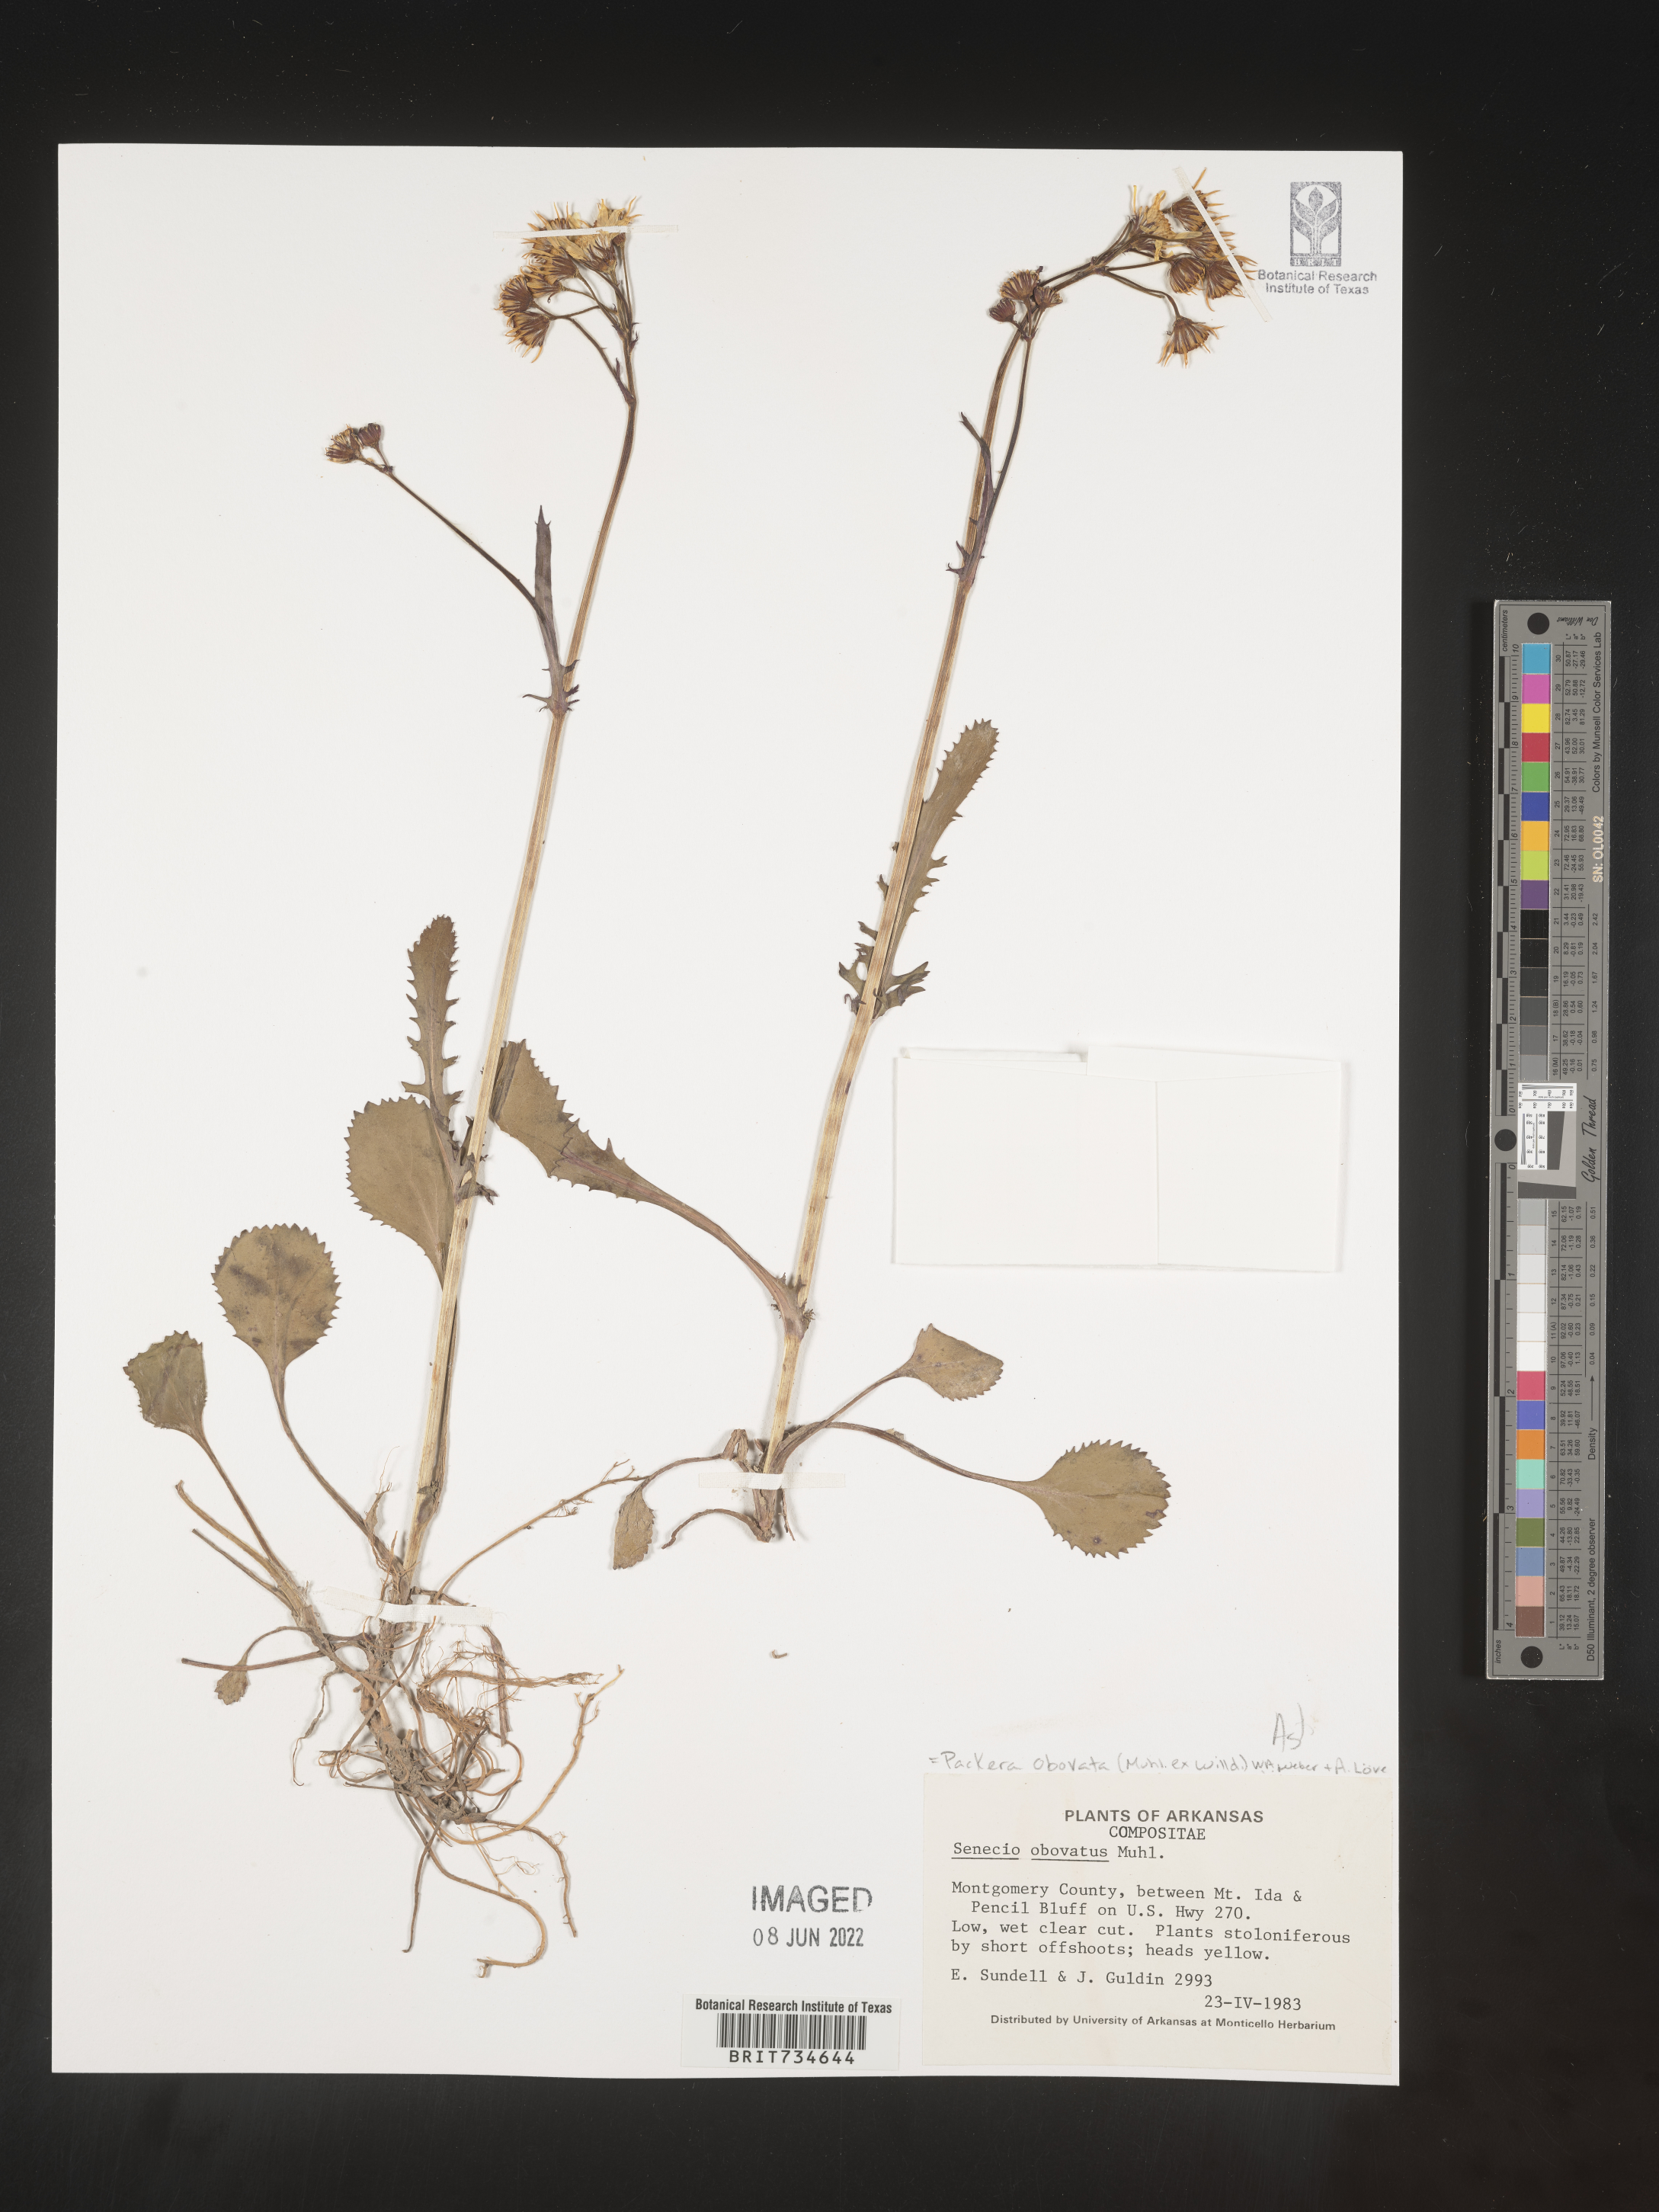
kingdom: Plantae
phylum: Tracheophyta
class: Magnoliopsida
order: Asterales
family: Asteraceae
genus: Packera
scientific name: Packera obovata
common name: Round-leaf ragwort
